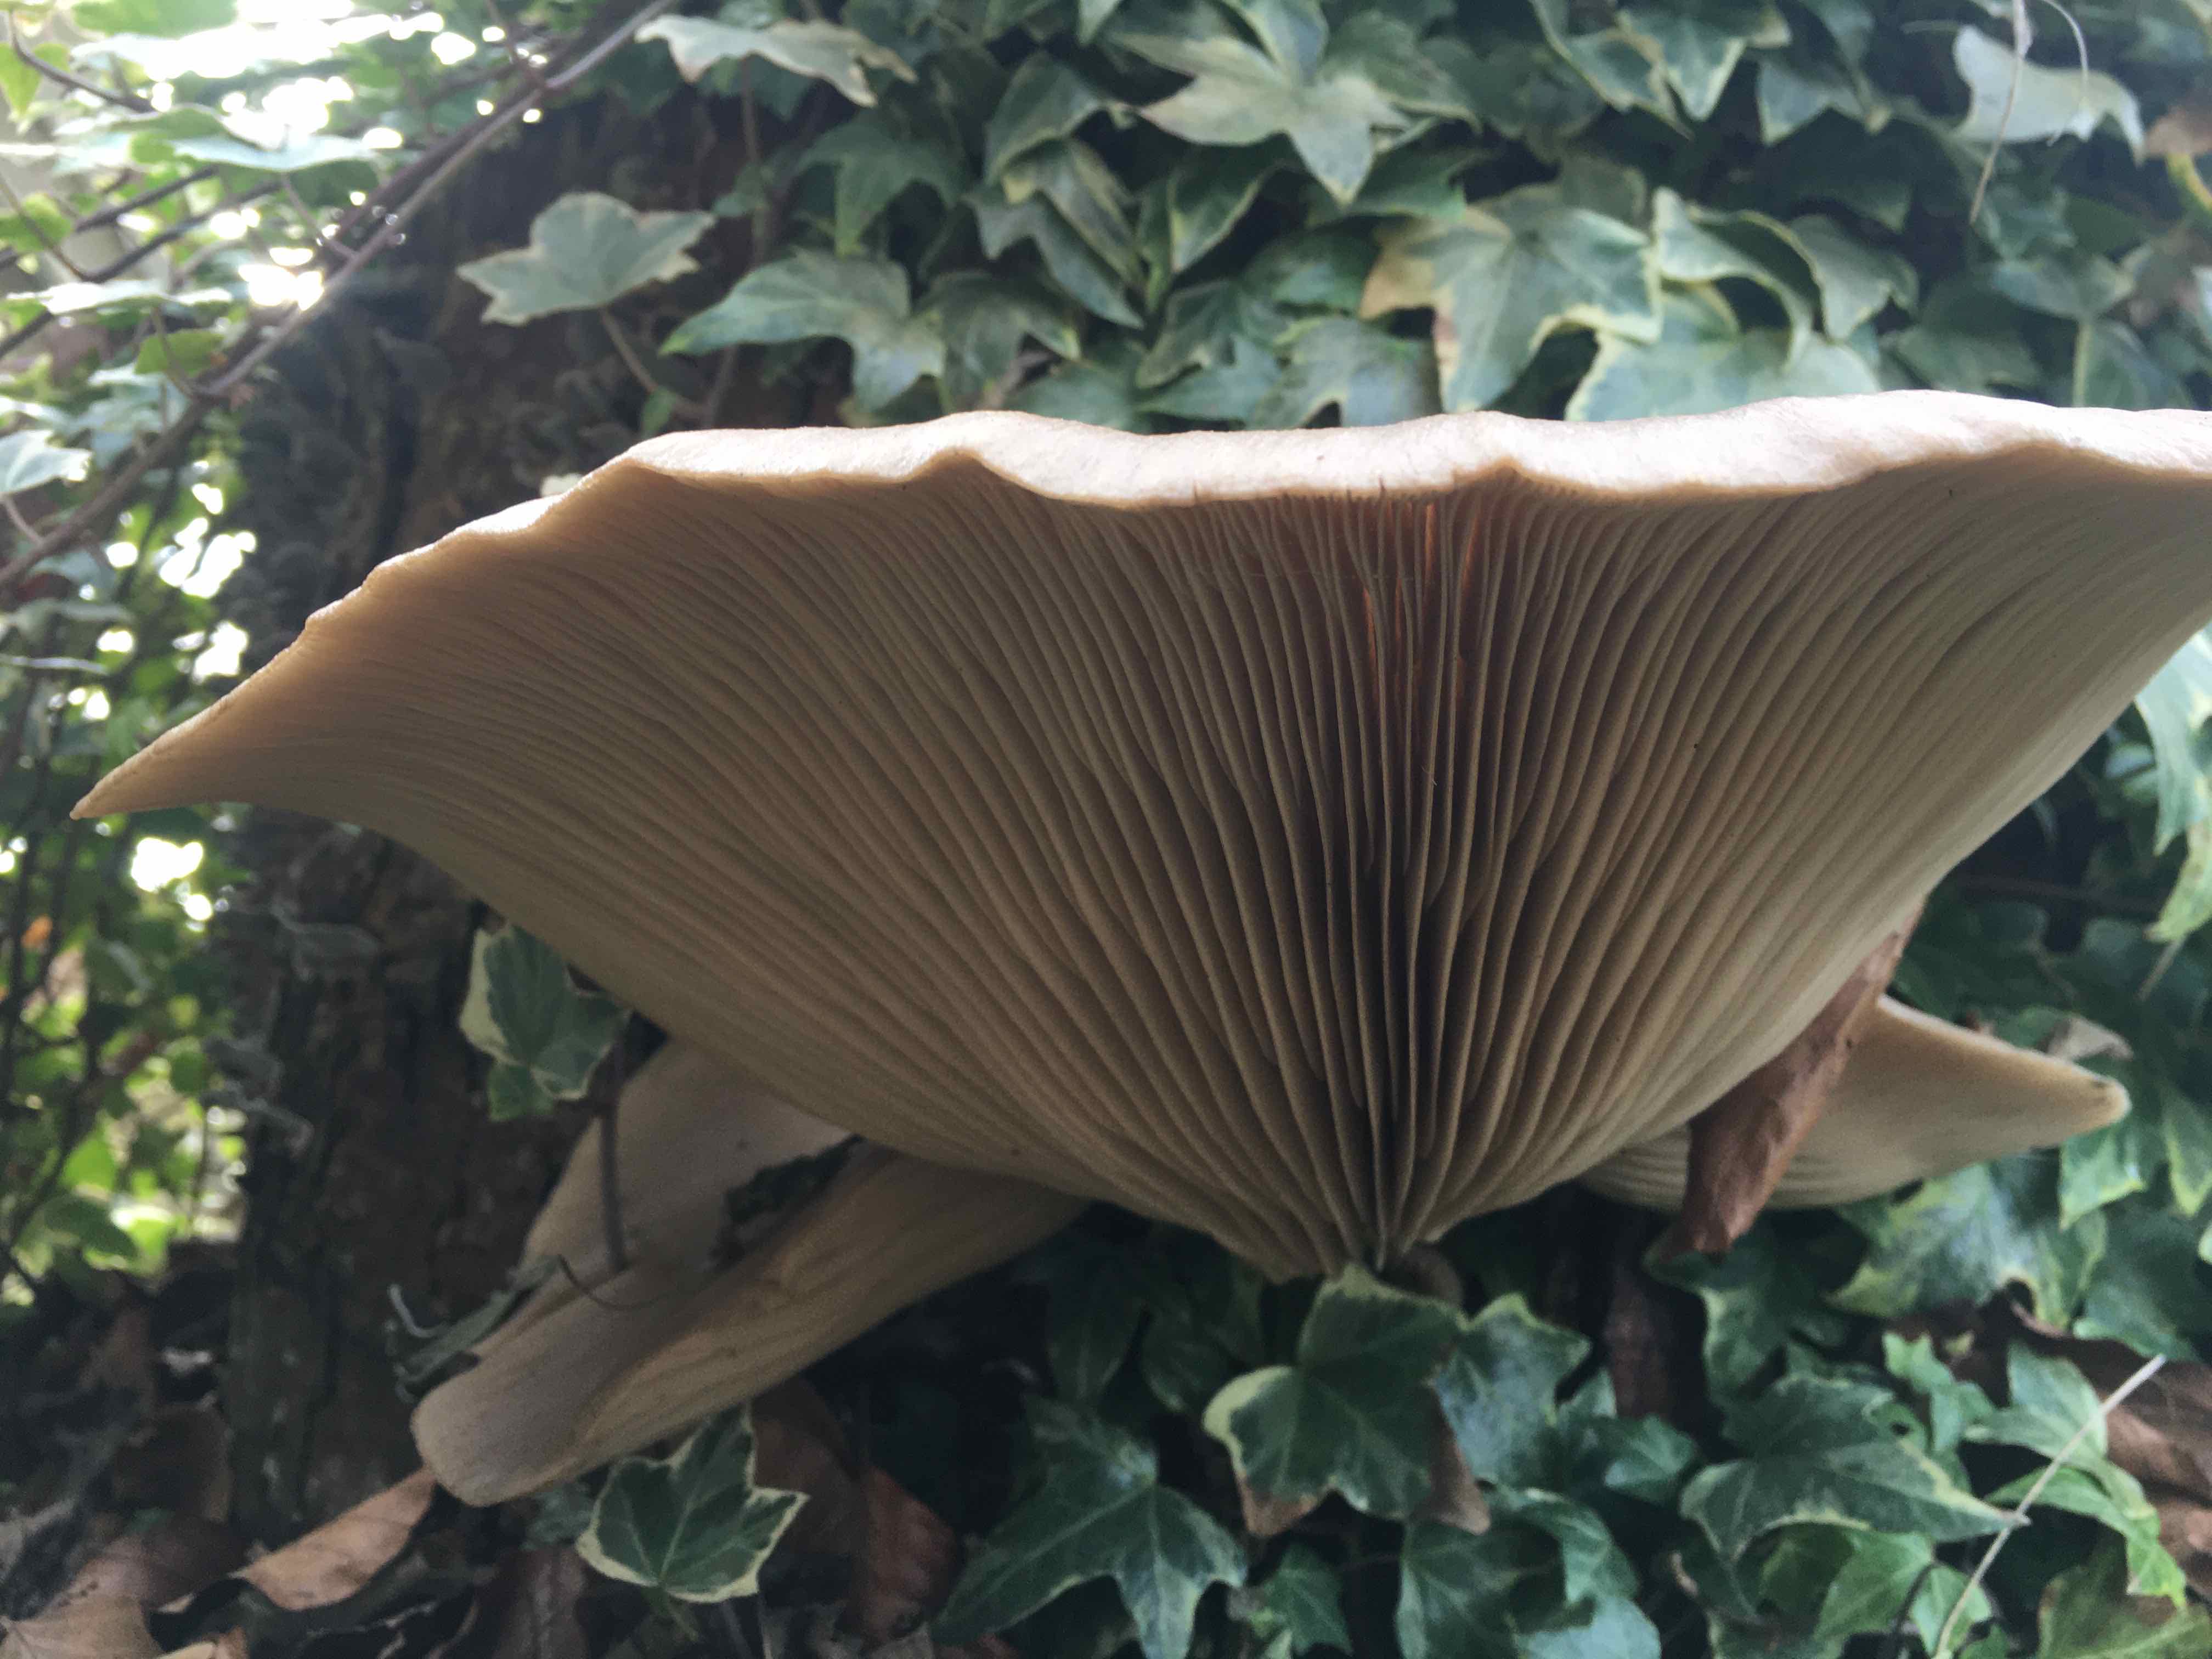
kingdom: Fungi
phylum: Basidiomycota
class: Agaricomycetes
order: Agaricales
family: Pleurotaceae
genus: Pleurotus
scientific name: Pleurotus ostreatus
